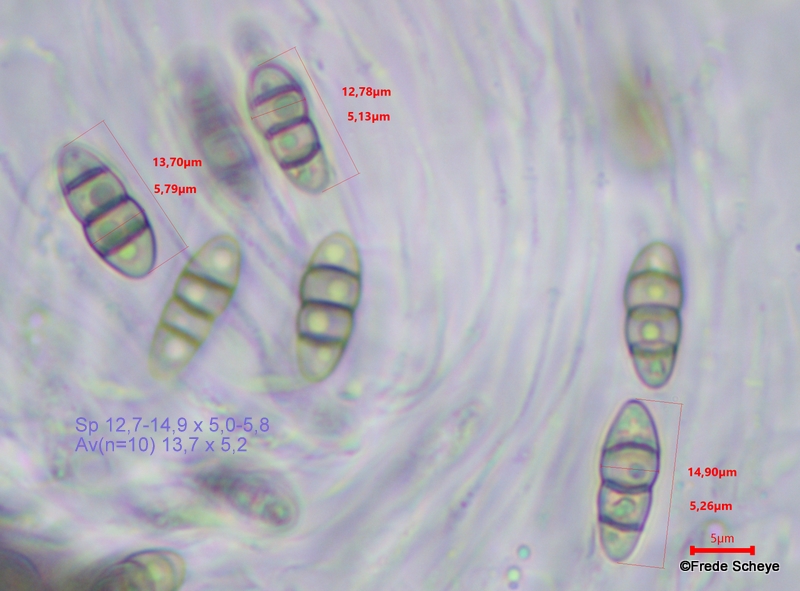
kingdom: Fungi
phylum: Ascomycota
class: Dothideomycetes
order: Pleosporales
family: Melanommataceae
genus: Melanomma
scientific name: Melanomma pulvis-pyrius
